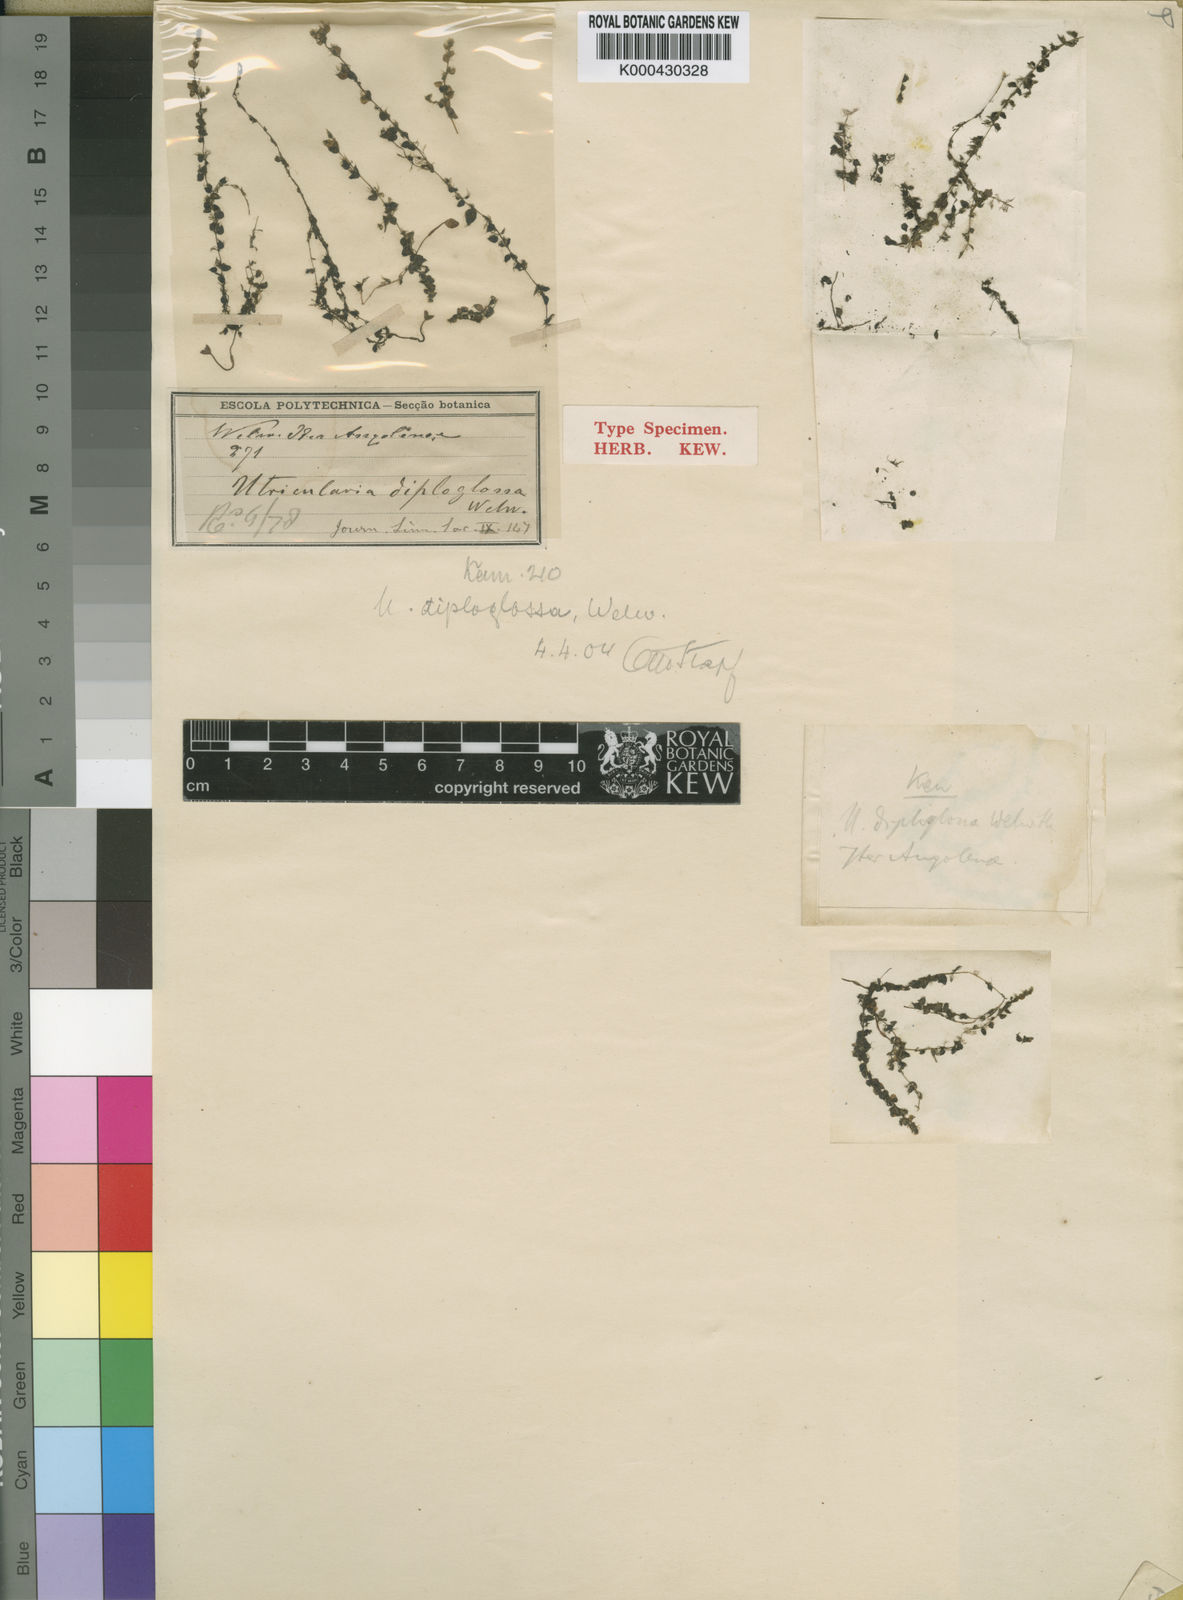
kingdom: Plantae
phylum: Tracheophyta
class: Magnoliopsida
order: Lamiales
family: Lentibulariaceae
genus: Utricularia
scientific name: Utricularia reflexa
